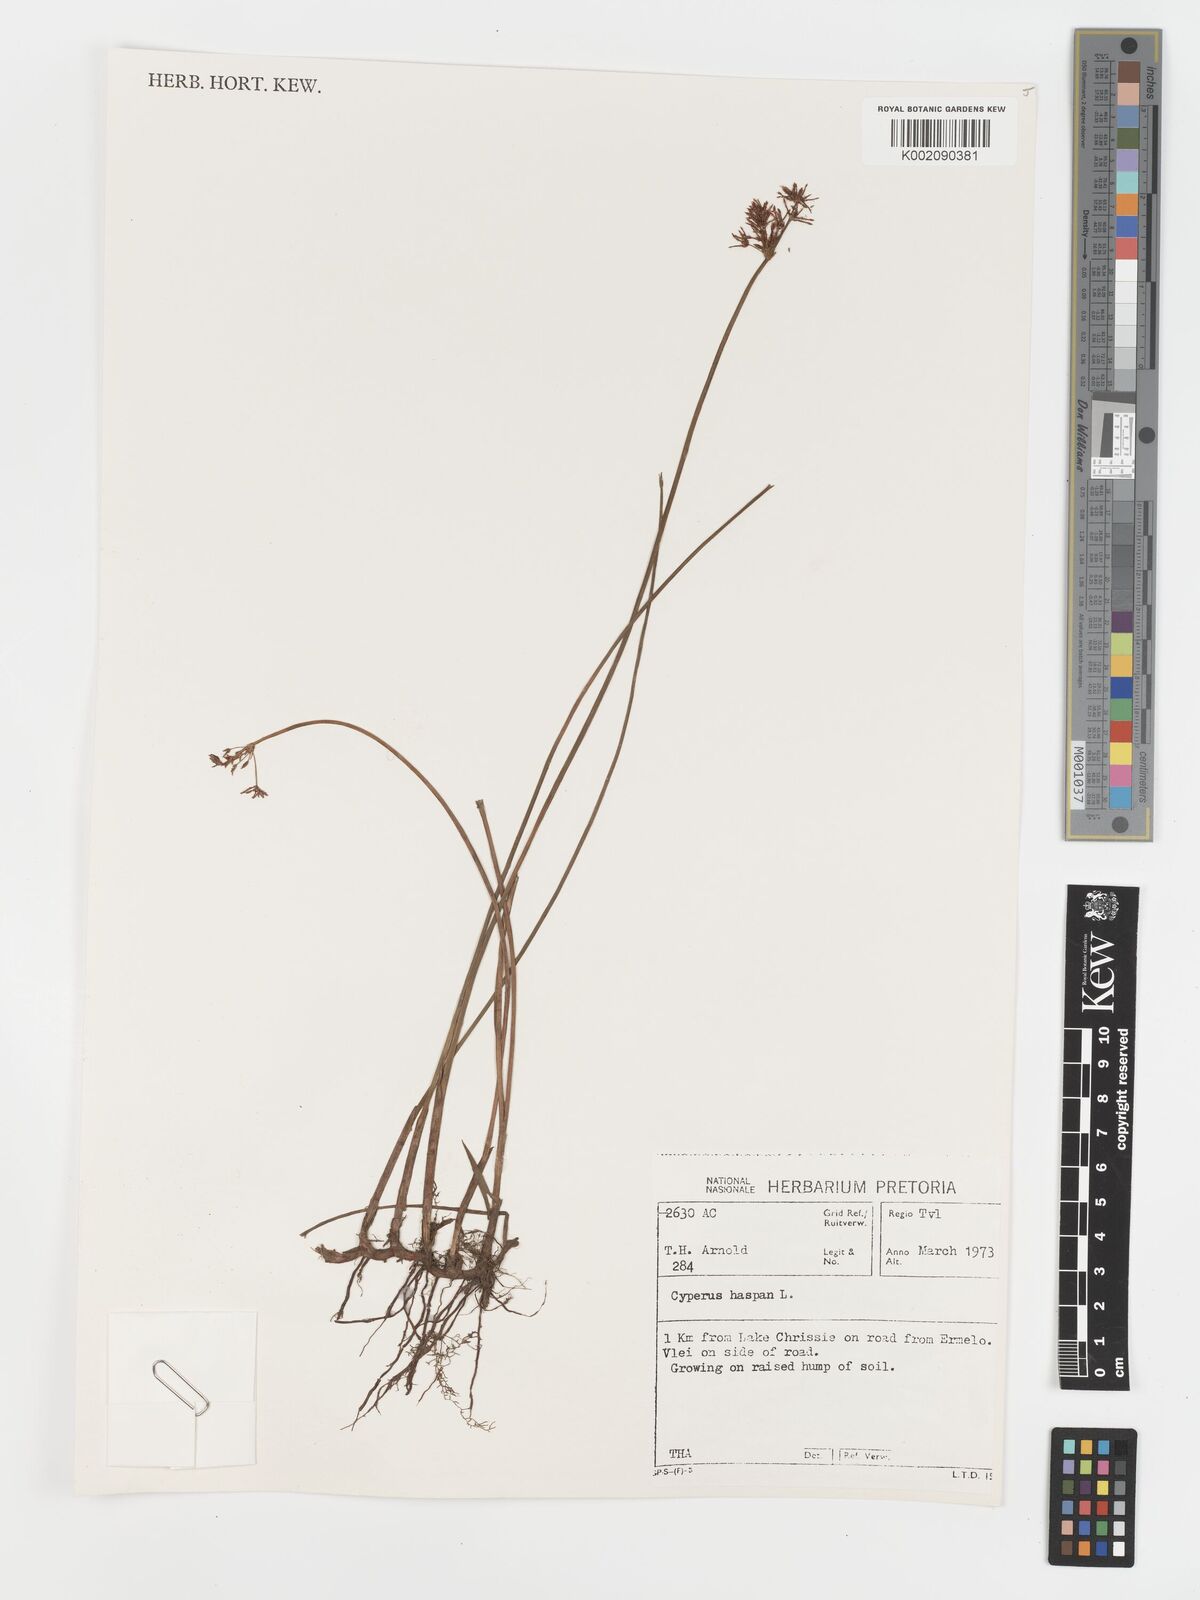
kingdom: Plantae
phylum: Tracheophyta
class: Liliopsida
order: Poales
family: Cyperaceae
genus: Cyperus
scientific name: Cyperus haspan
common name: Haspan flatsedge
